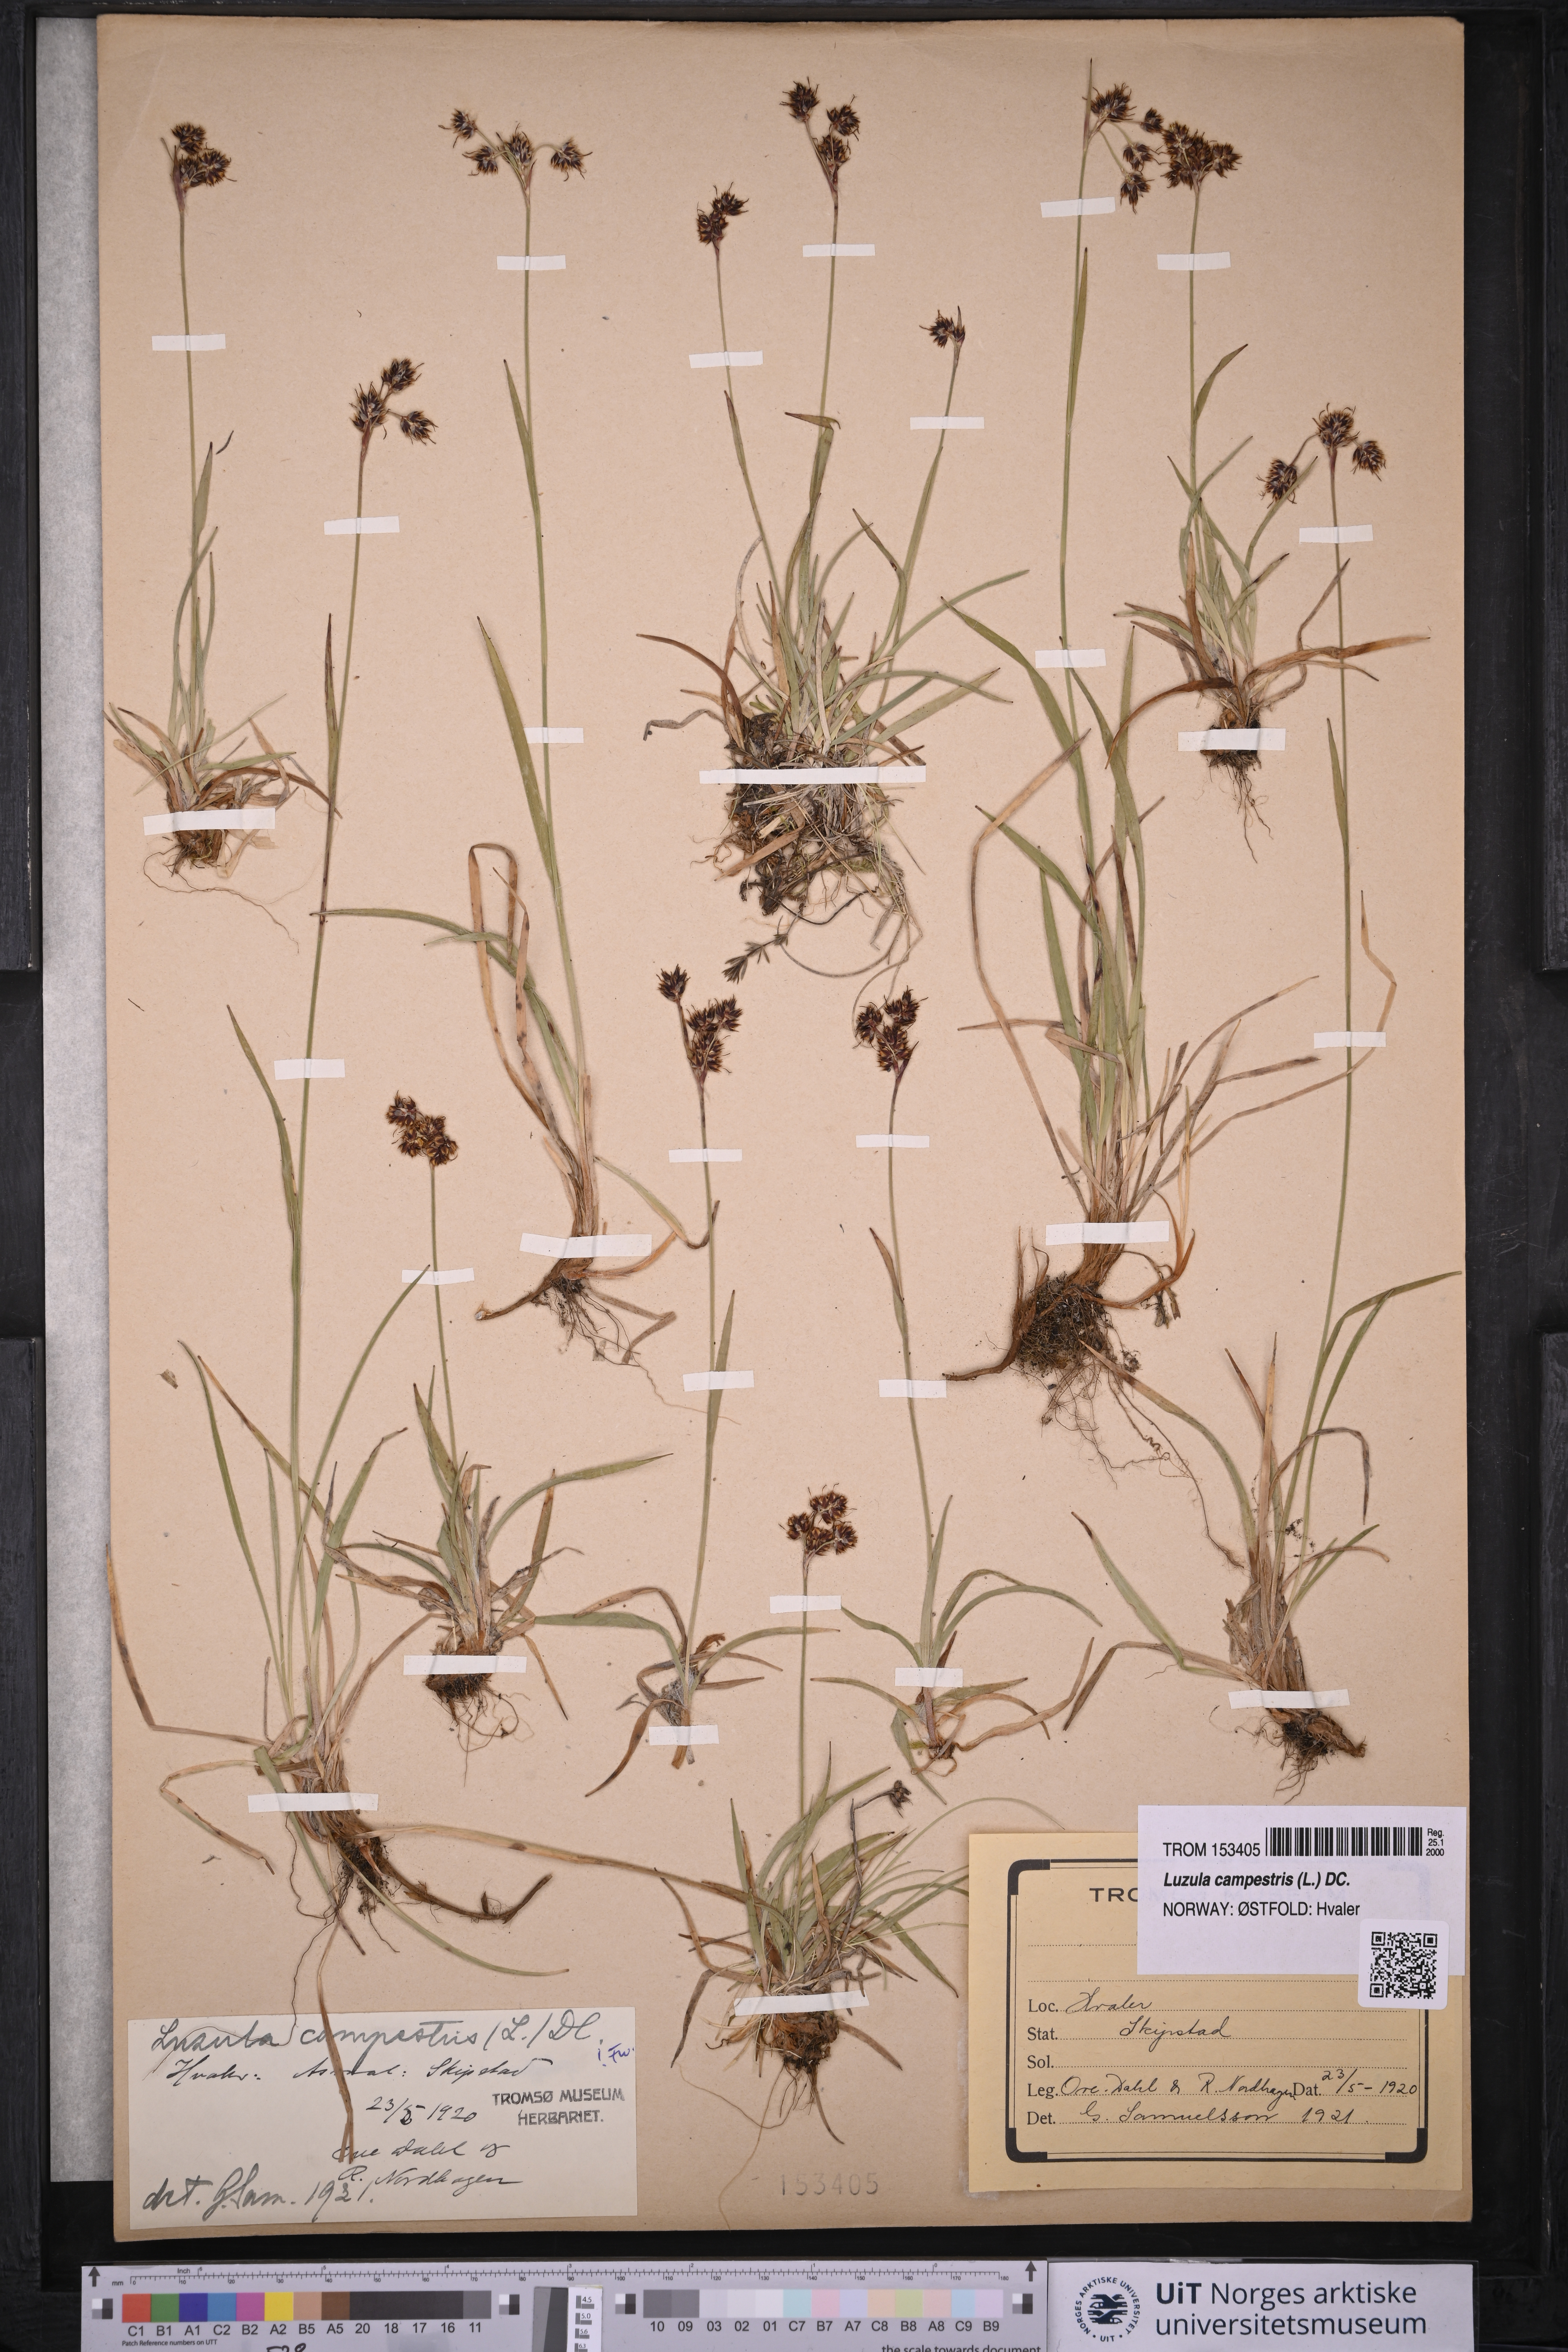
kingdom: Plantae
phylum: Tracheophyta
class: Liliopsida
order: Poales
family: Juncaceae
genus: Luzula
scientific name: Luzula campestris
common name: Field wood-rush
